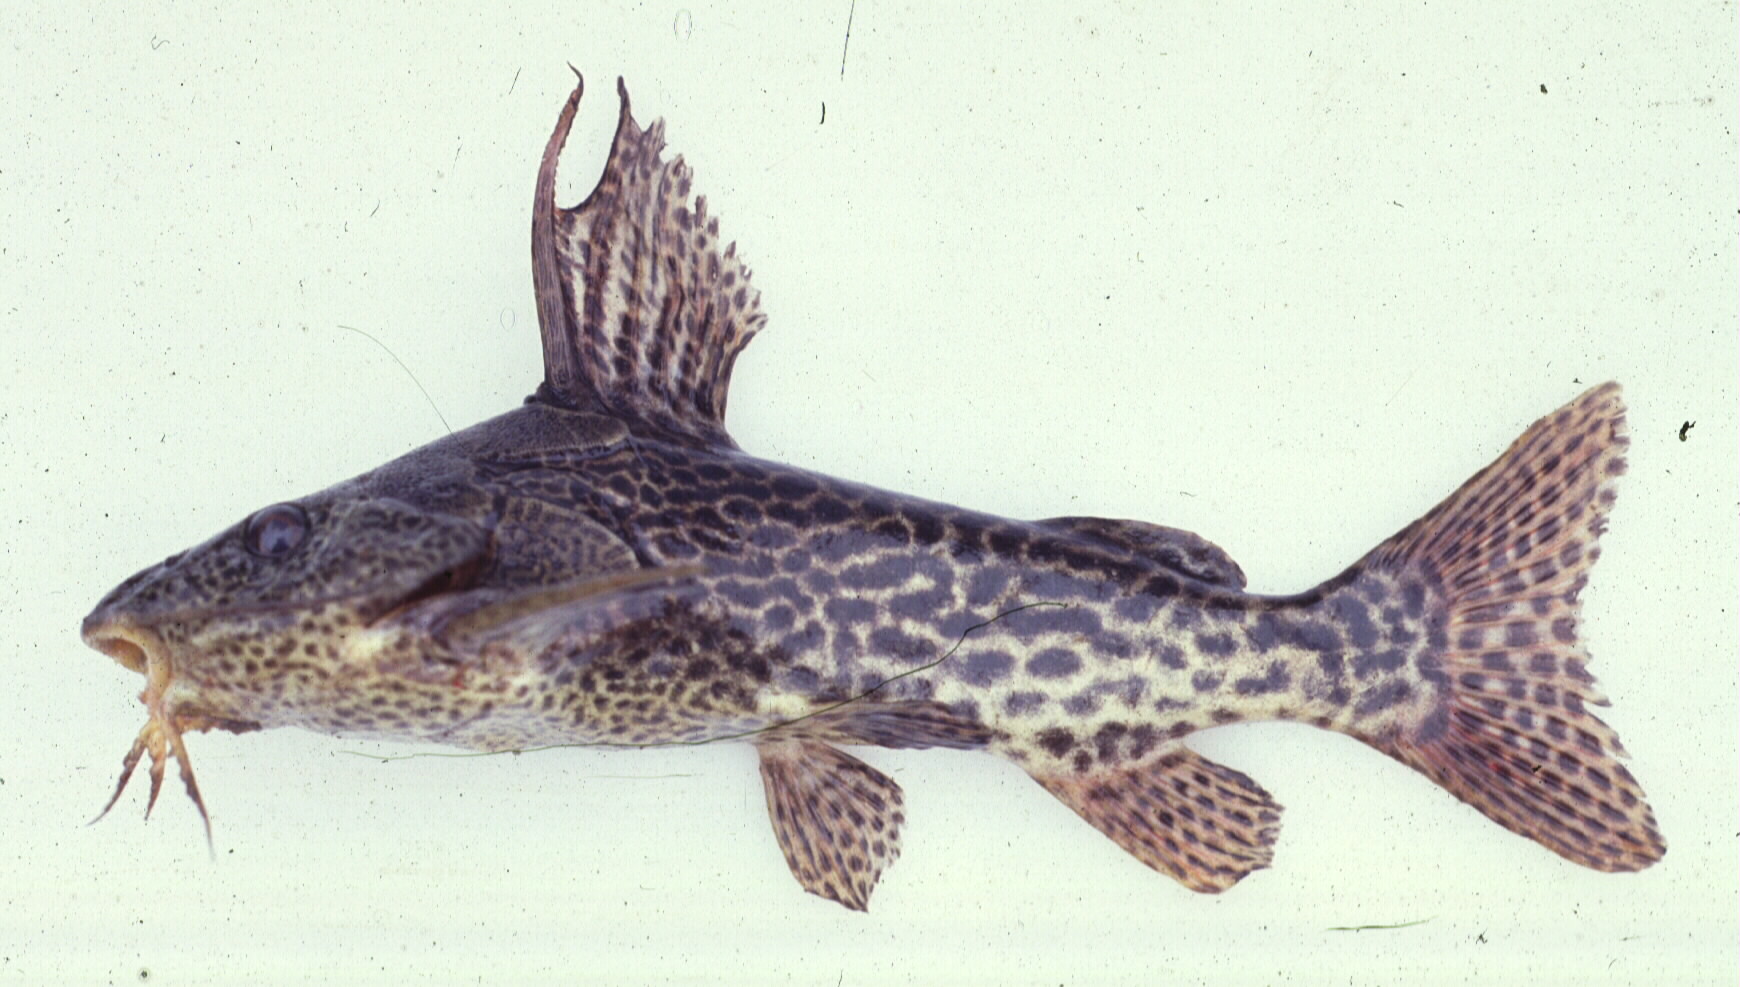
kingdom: Animalia
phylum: Chordata
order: Siluriformes
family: Mochokidae
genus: Synodontis
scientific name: Synodontis macrostigma
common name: Largespot squeaker
